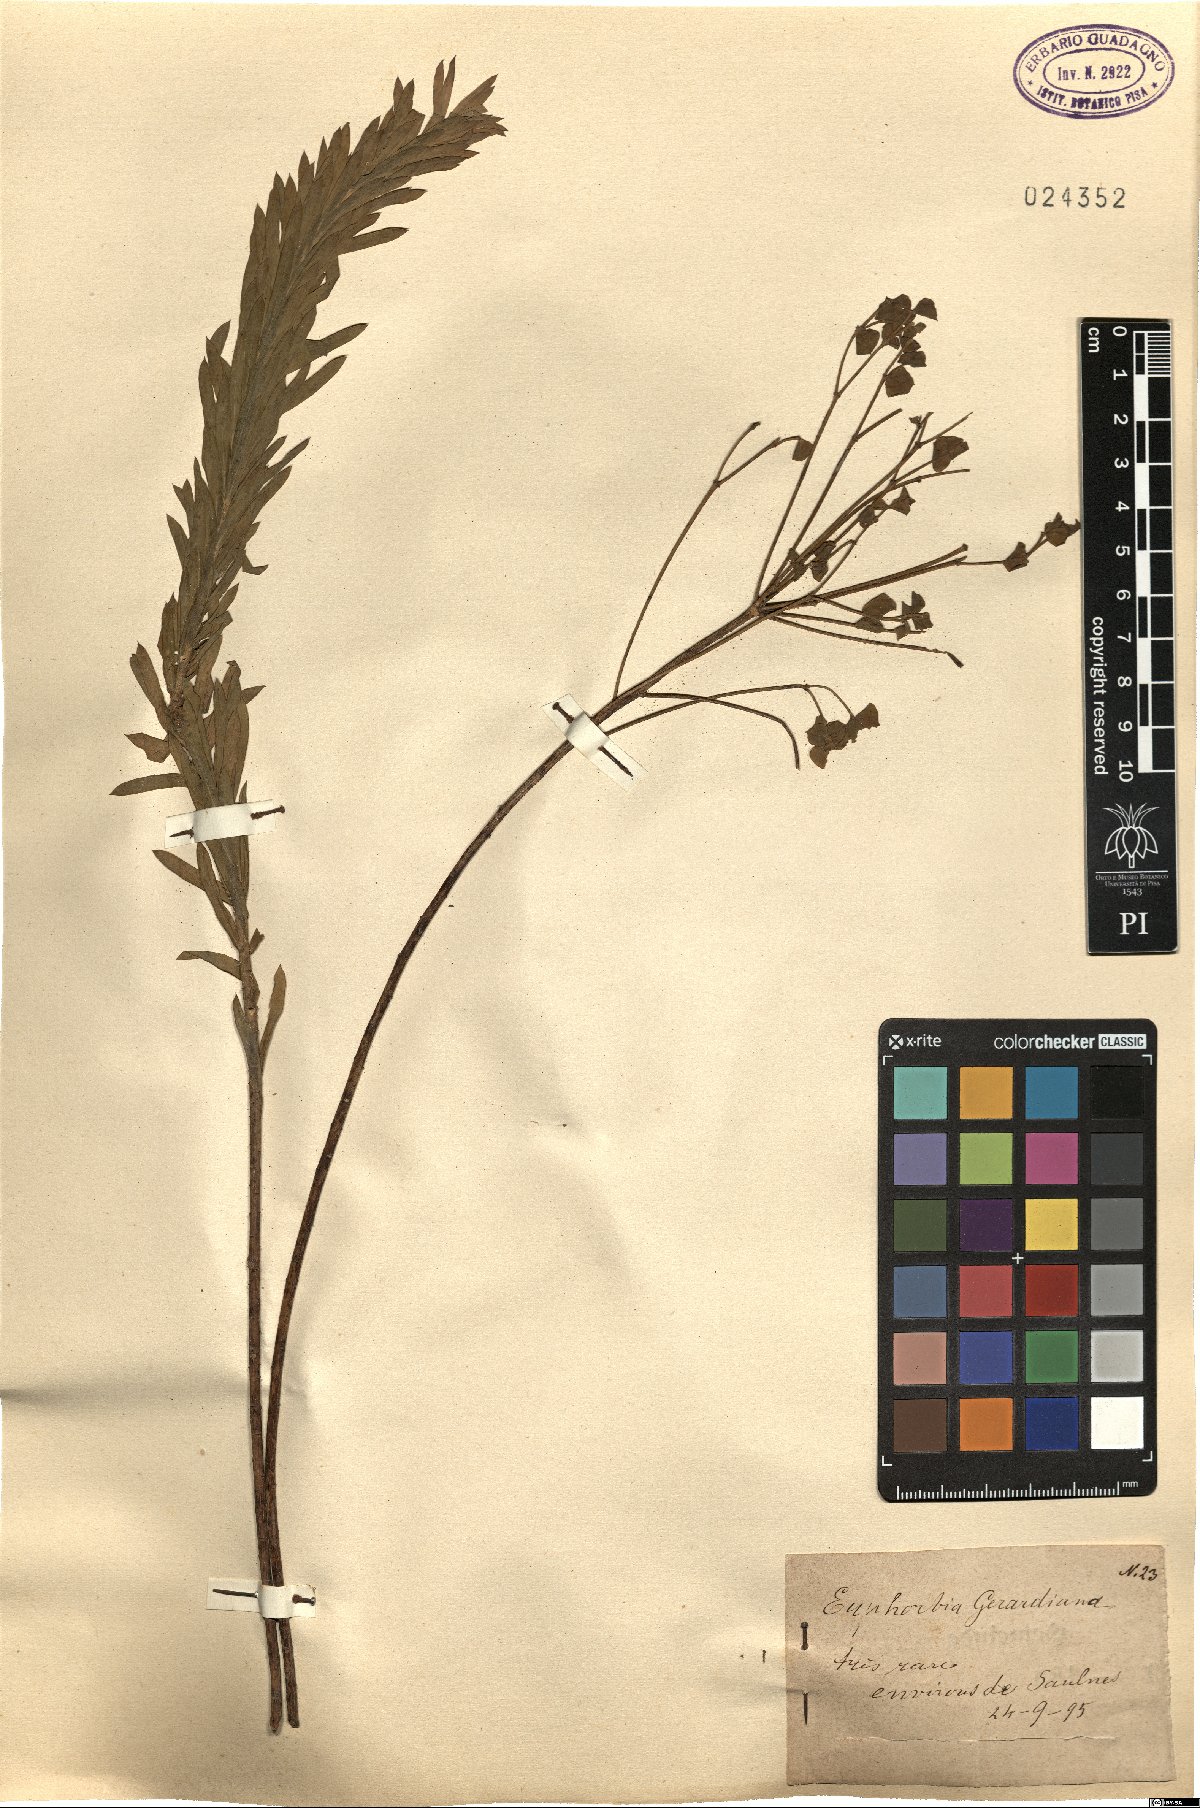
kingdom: Plantae
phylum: Tracheophyta
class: Magnoliopsida
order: Malpighiales
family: Euphorbiaceae
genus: Euphorbia
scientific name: Euphorbia seguieriana
